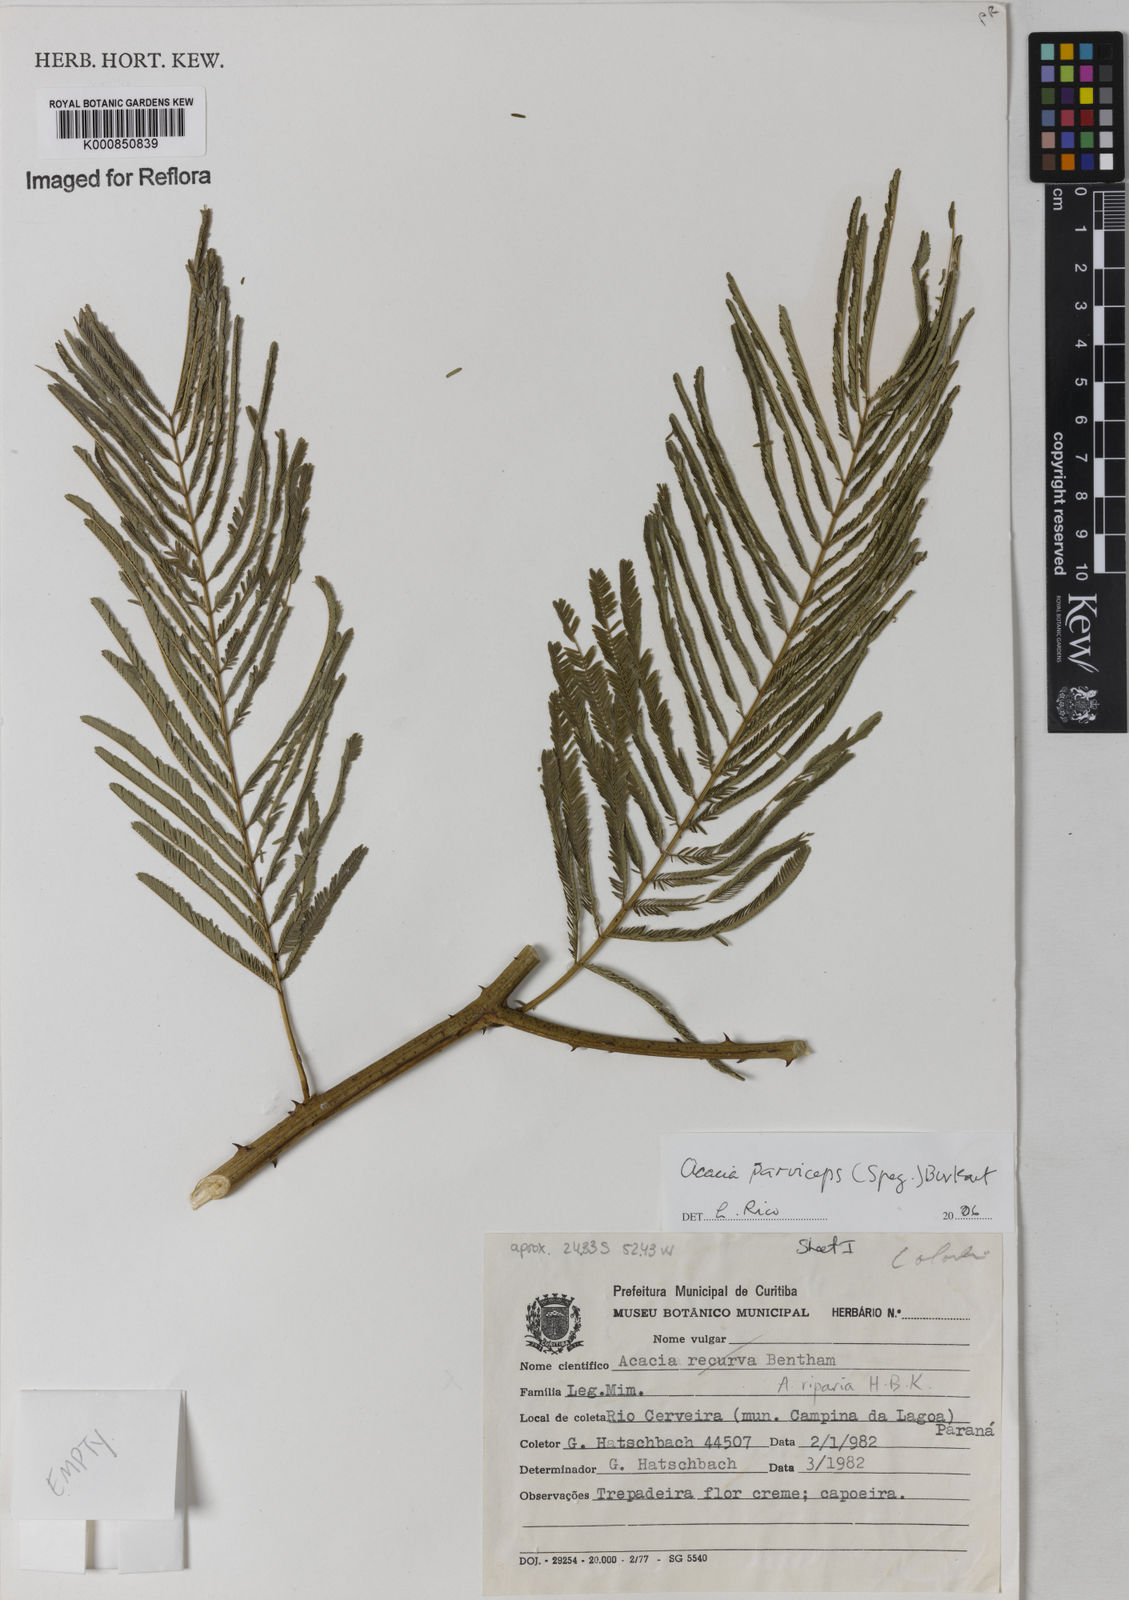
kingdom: Plantae
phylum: Tracheophyta
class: Magnoliopsida
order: Fabales
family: Fabaceae
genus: Senegalia
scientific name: Senegalia parviceps
